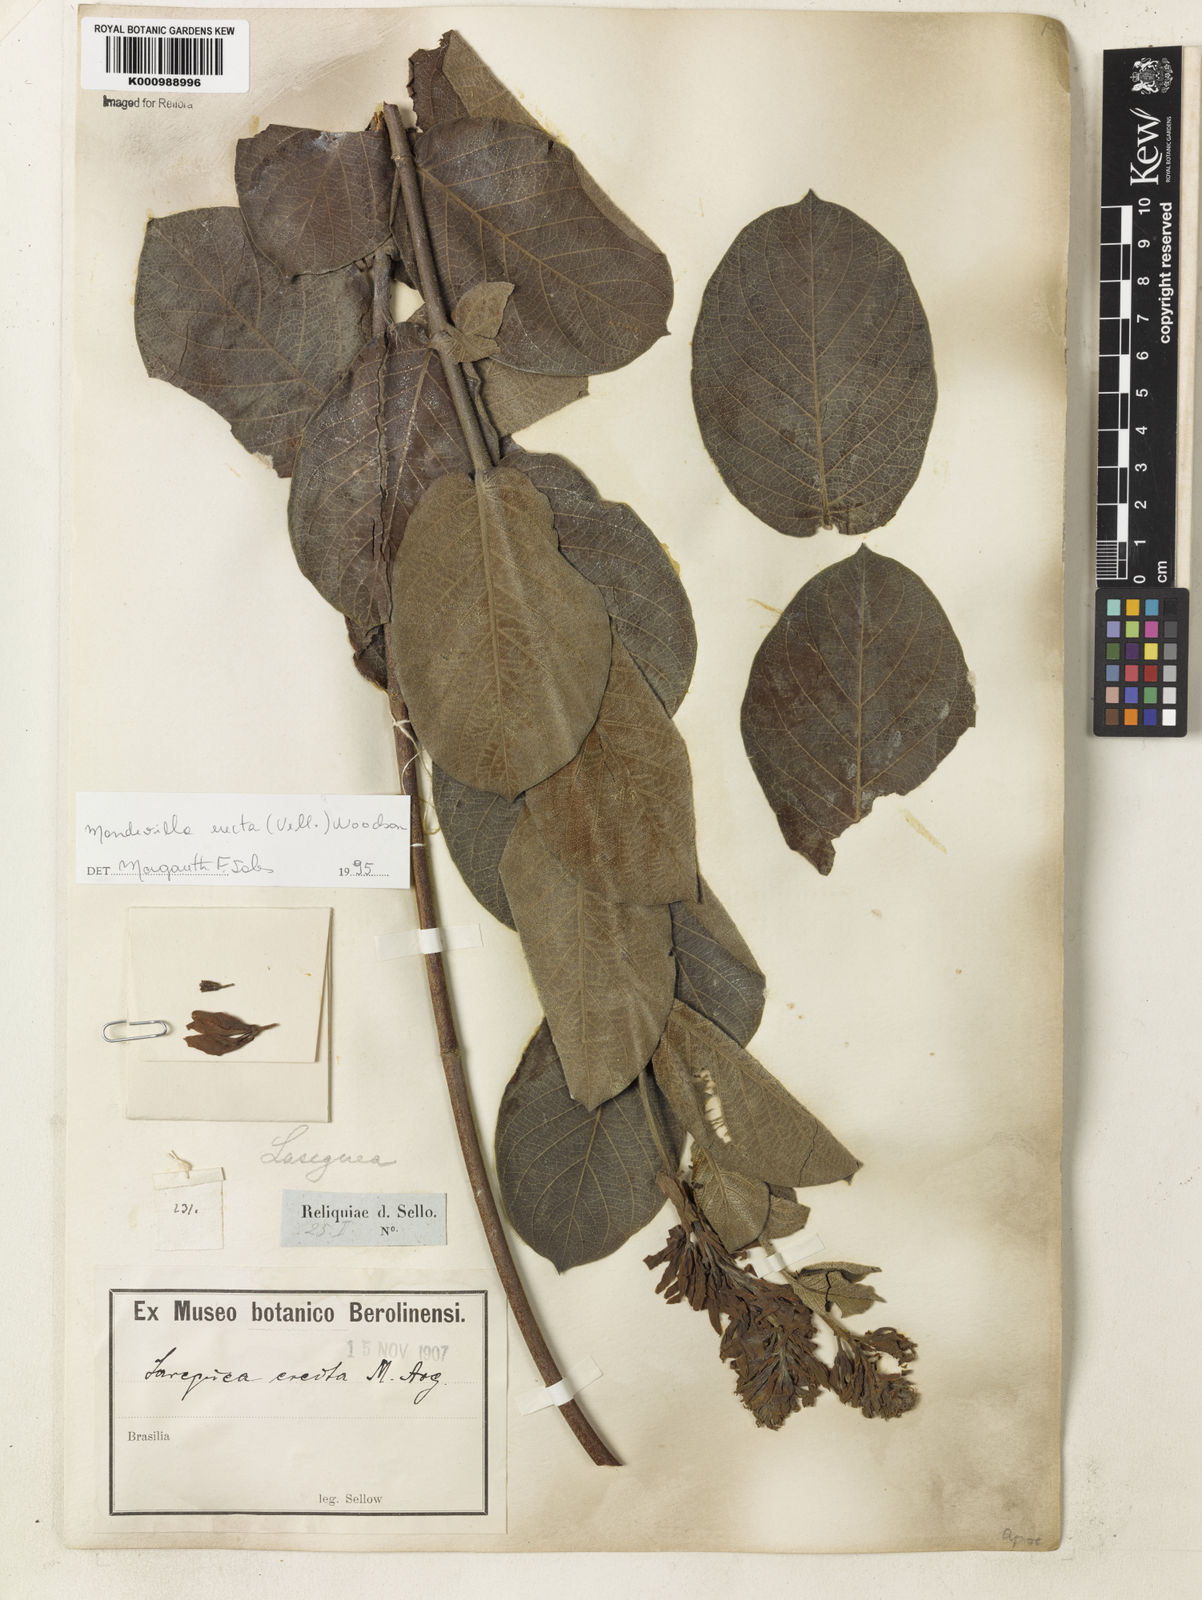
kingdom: Plantae
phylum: Tracheophyta
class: Magnoliopsida
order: Gentianales
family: Apocynaceae
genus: Mandevilla
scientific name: Mandevilla emarginata
